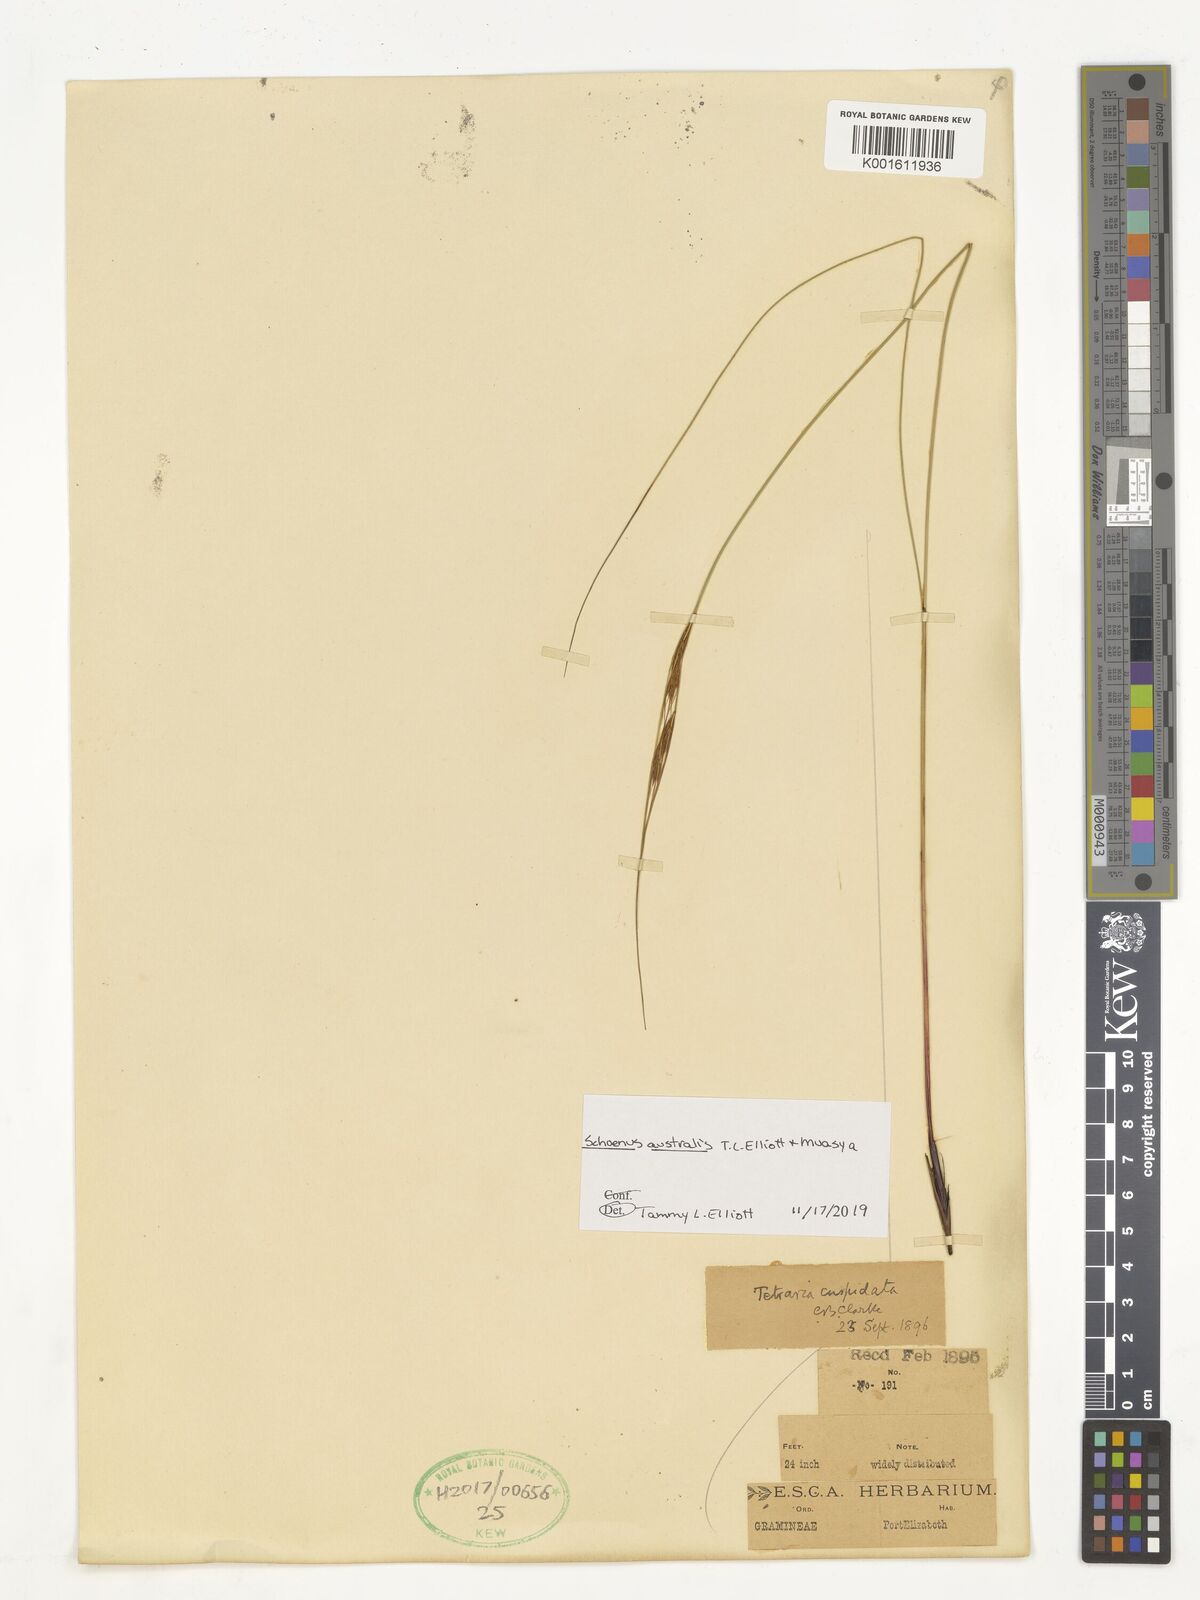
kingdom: Plantae
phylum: Tracheophyta
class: Liliopsida
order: Poales
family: Cyperaceae
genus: Schoenus
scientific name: Schoenus
